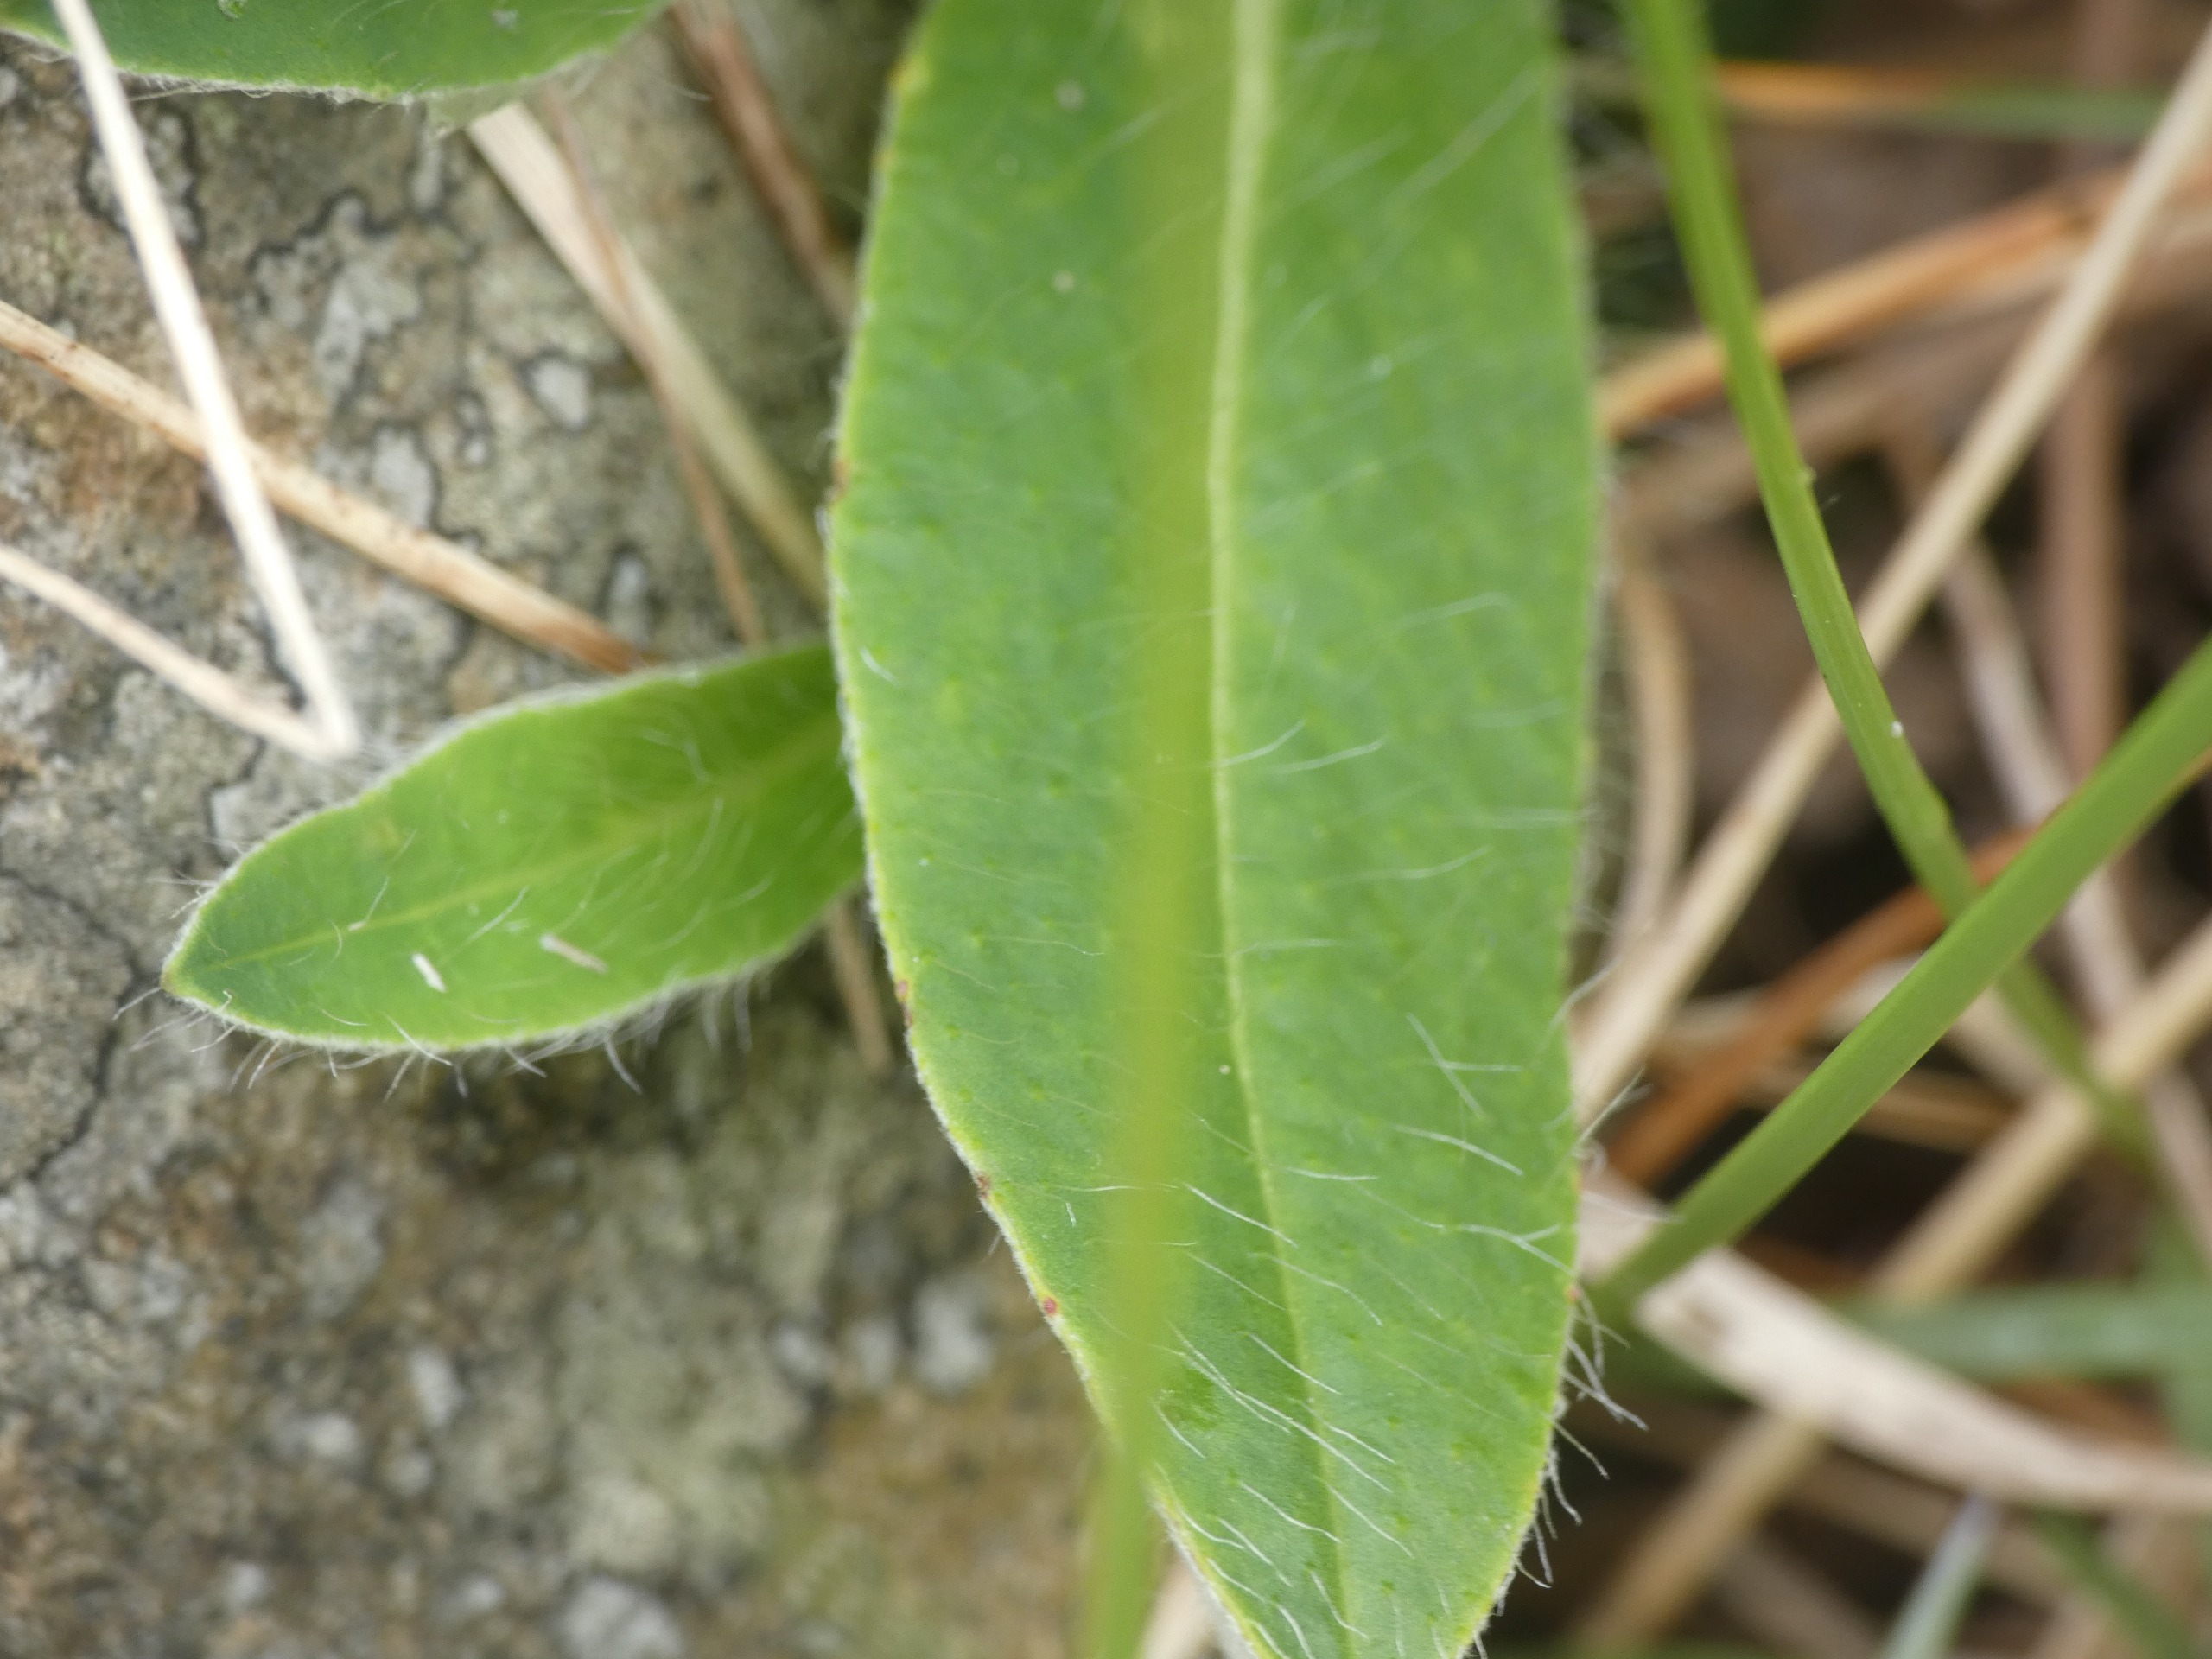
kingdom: Plantae
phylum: Tracheophyta
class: Magnoliopsida
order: Asterales
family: Asteraceae
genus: Pilosella
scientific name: Pilosella officinarum
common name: Håret høgeurt
